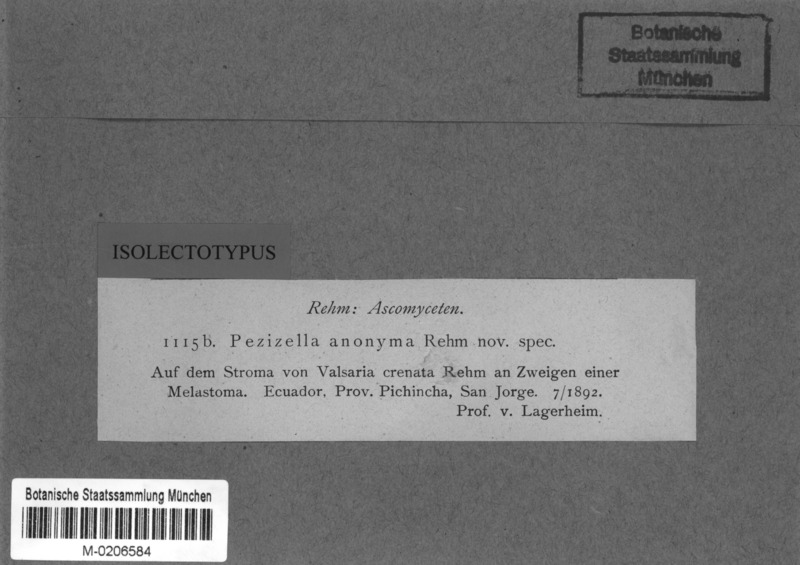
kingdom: Fungi
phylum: Ascomycota
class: Orbiliomycetes
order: Orbiliales
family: Orbiliaceae
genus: Hyalorbilia
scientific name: Hyalorbilia anonyma
